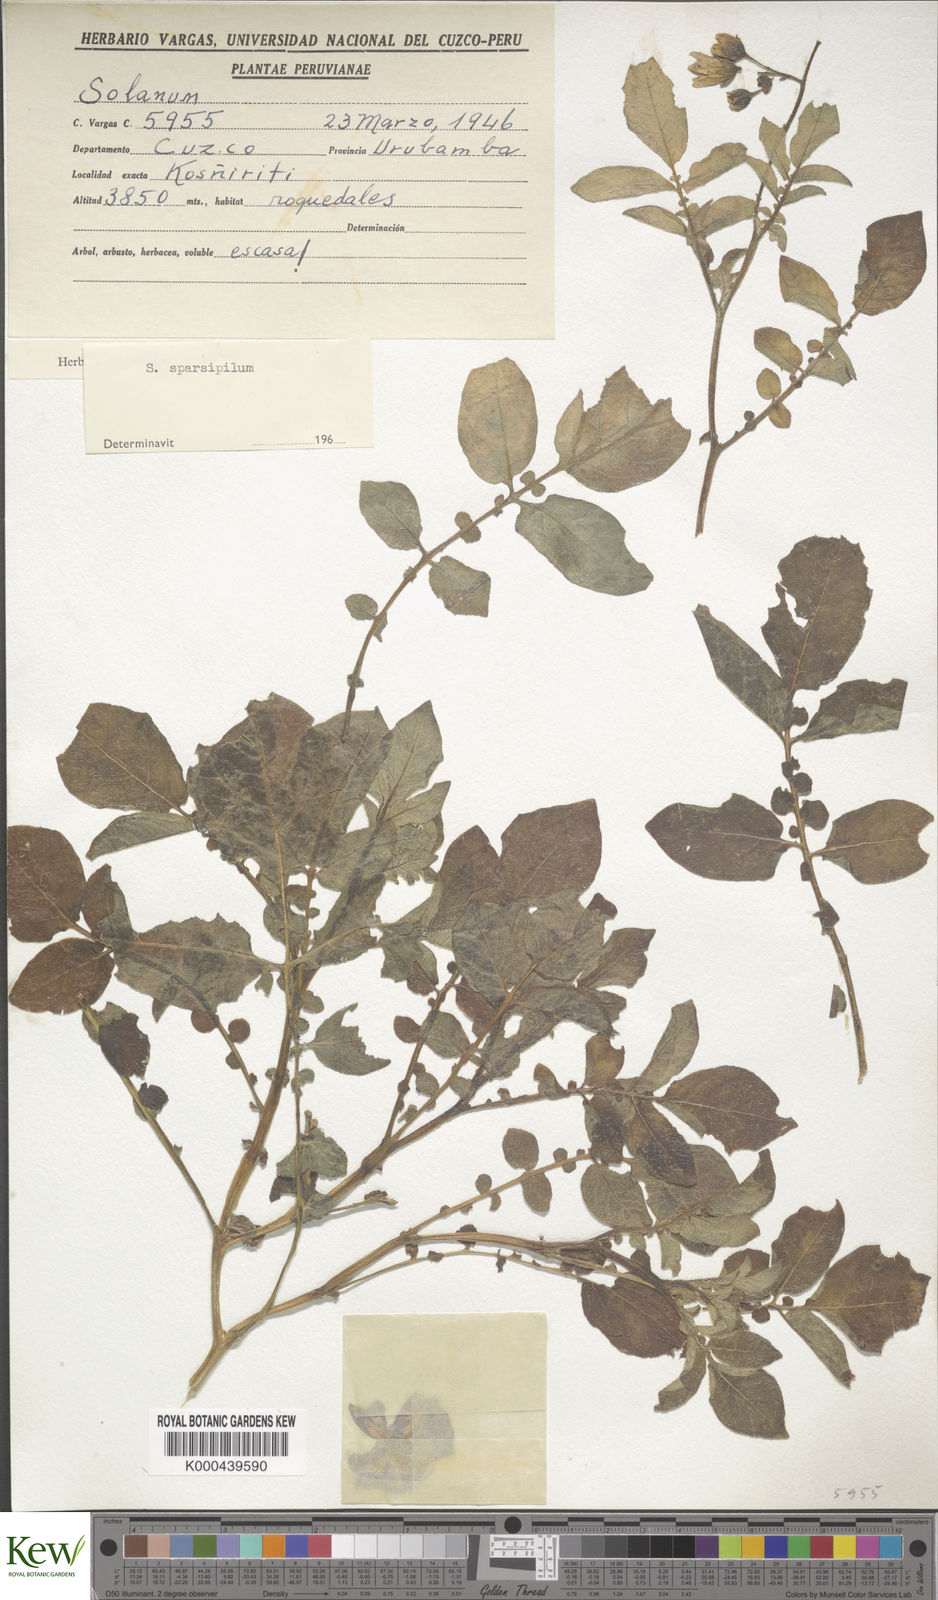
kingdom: Plantae
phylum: Tracheophyta
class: Magnoliopsida
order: Solanales
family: Solanaceae
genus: Solanum
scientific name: Solanum brevicaule
